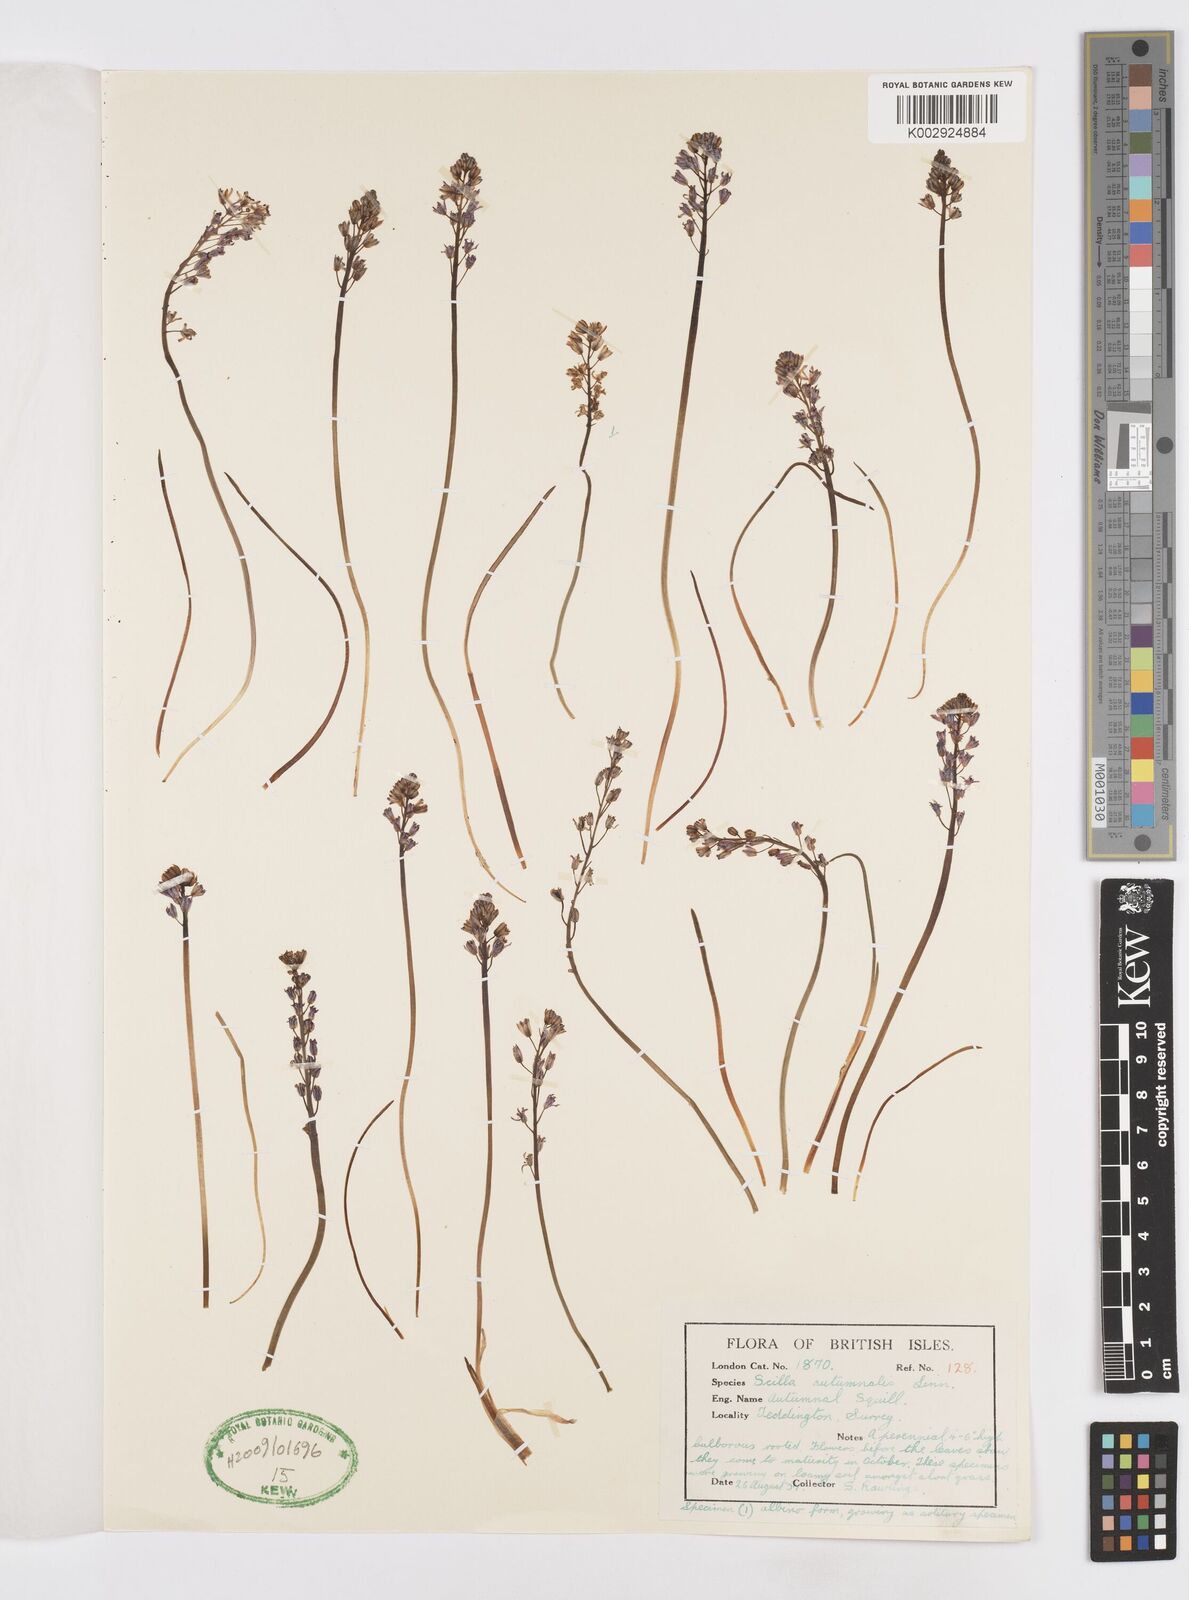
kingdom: Plantae
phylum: Tracheophyta
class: Liliopsida
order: Asparagales
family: Asparagaceae
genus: Prospero
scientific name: Prospero autumnale
